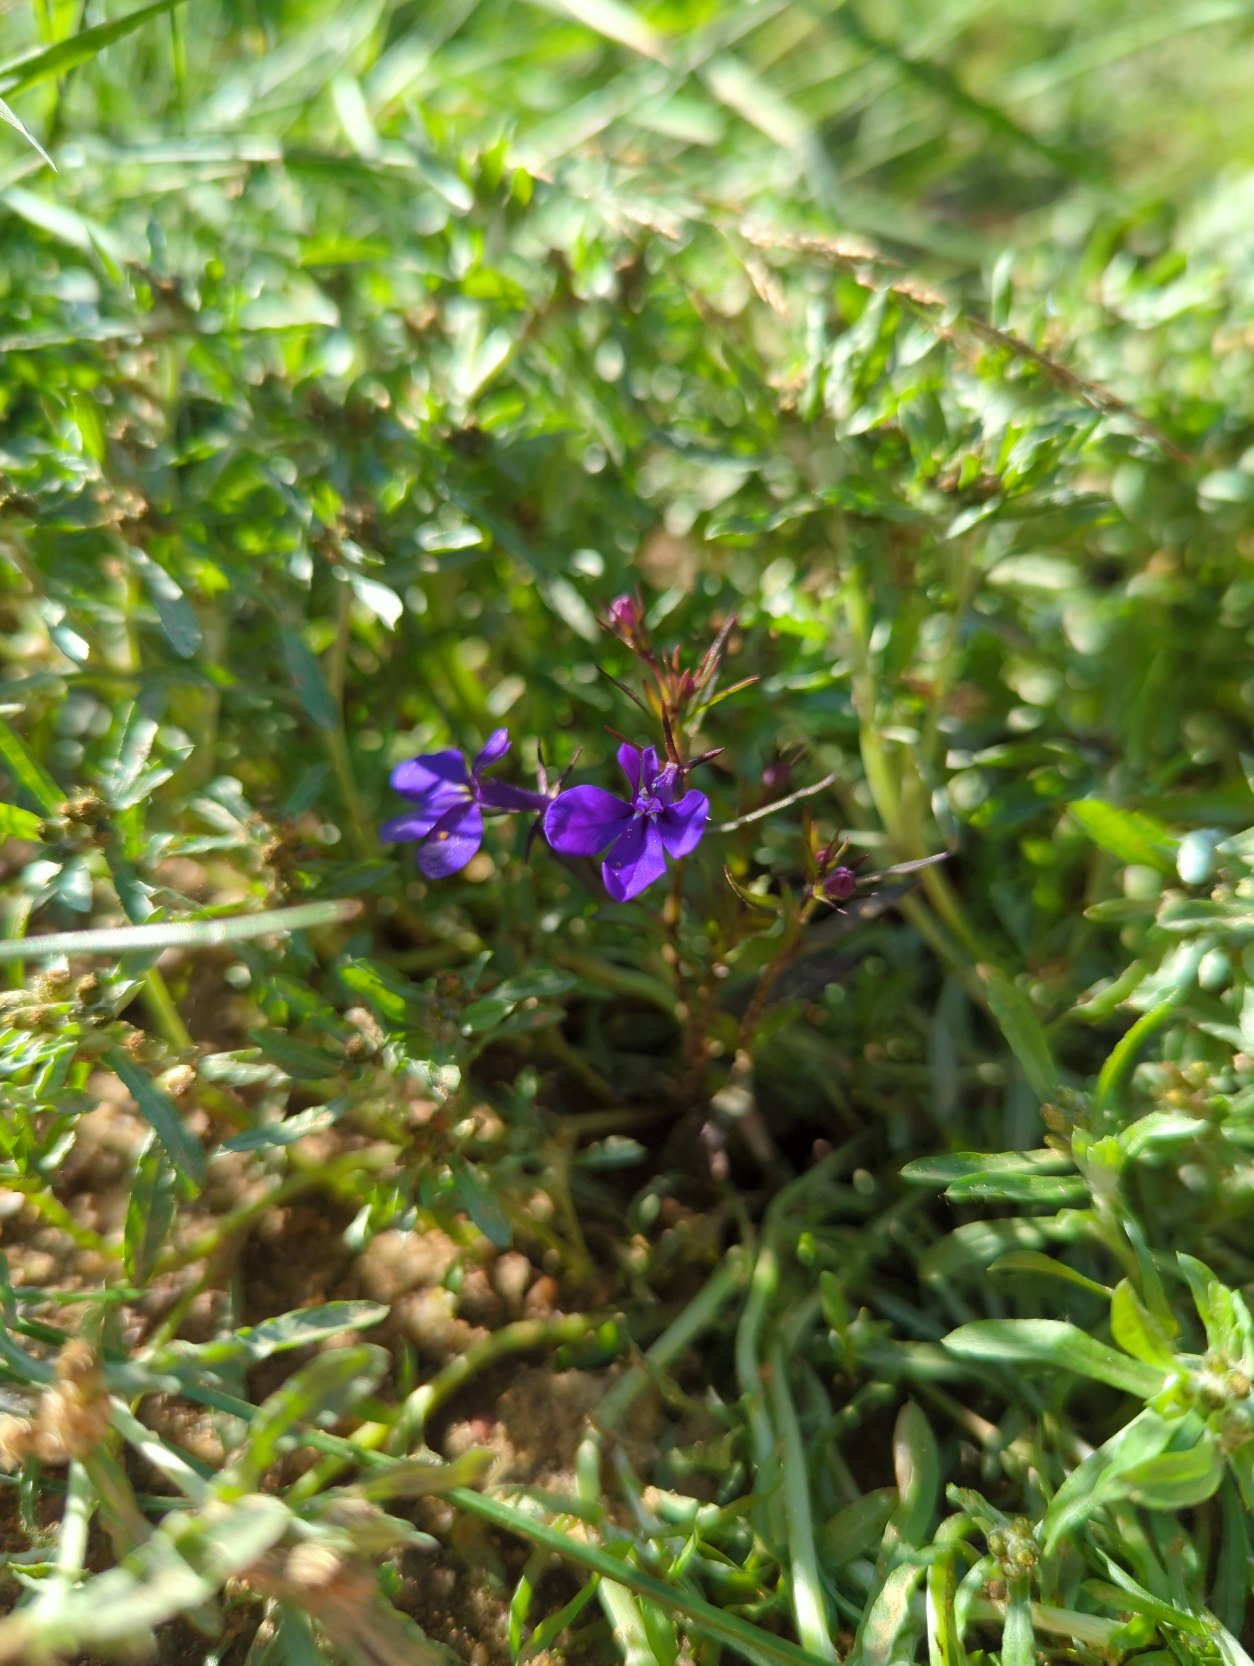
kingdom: Plantae
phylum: Tracheophyta
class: Magnoliopsida
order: Asterales
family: Campanulaceae
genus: Lobelia
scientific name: Lobelia erinus
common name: Kant-lobelie
